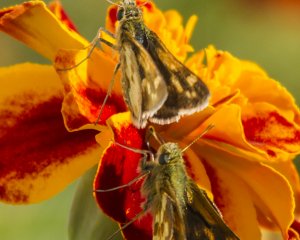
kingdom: Animalia
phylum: Arthropoda
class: Insecta
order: Lepidoptera
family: Hesperiidae
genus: Polites
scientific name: Polites coras
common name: Peck's Skipper
